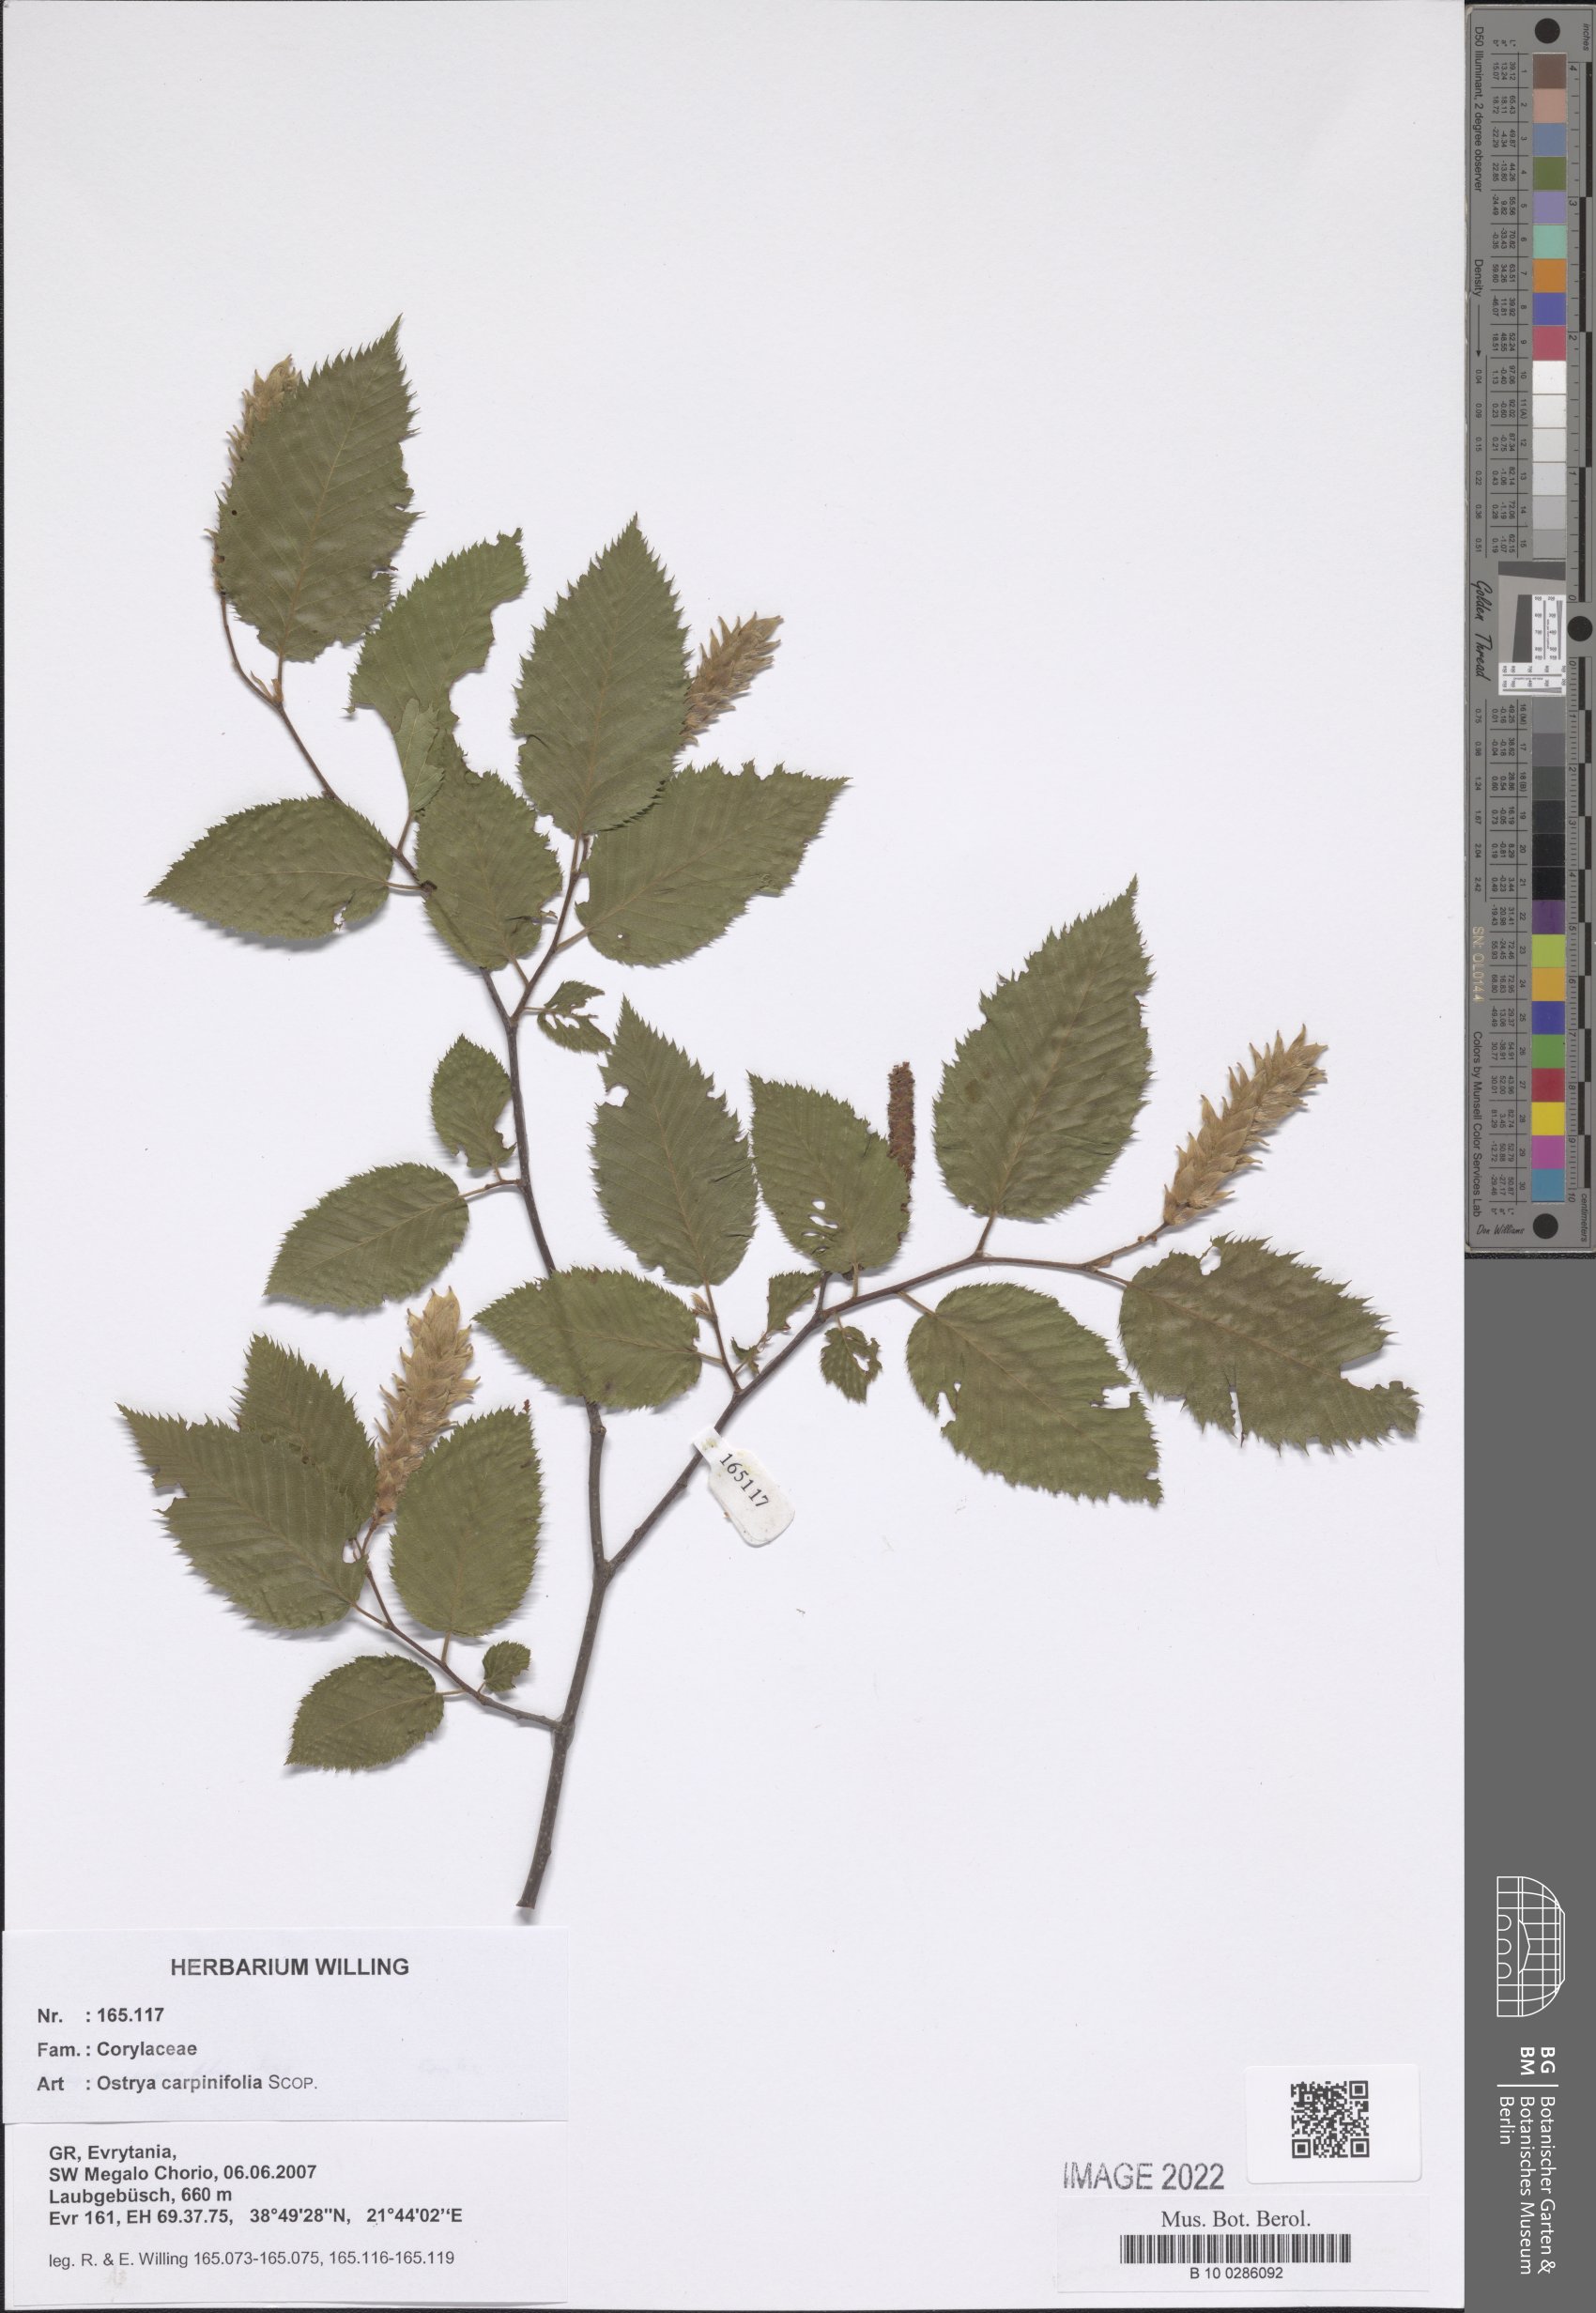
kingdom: Plantae
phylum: Tracheophyta
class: Magnoliopsida
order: Fagales
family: Betulaceae
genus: Ostrya
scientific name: Ostrya carpinifolia
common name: European hop-hornbeam
